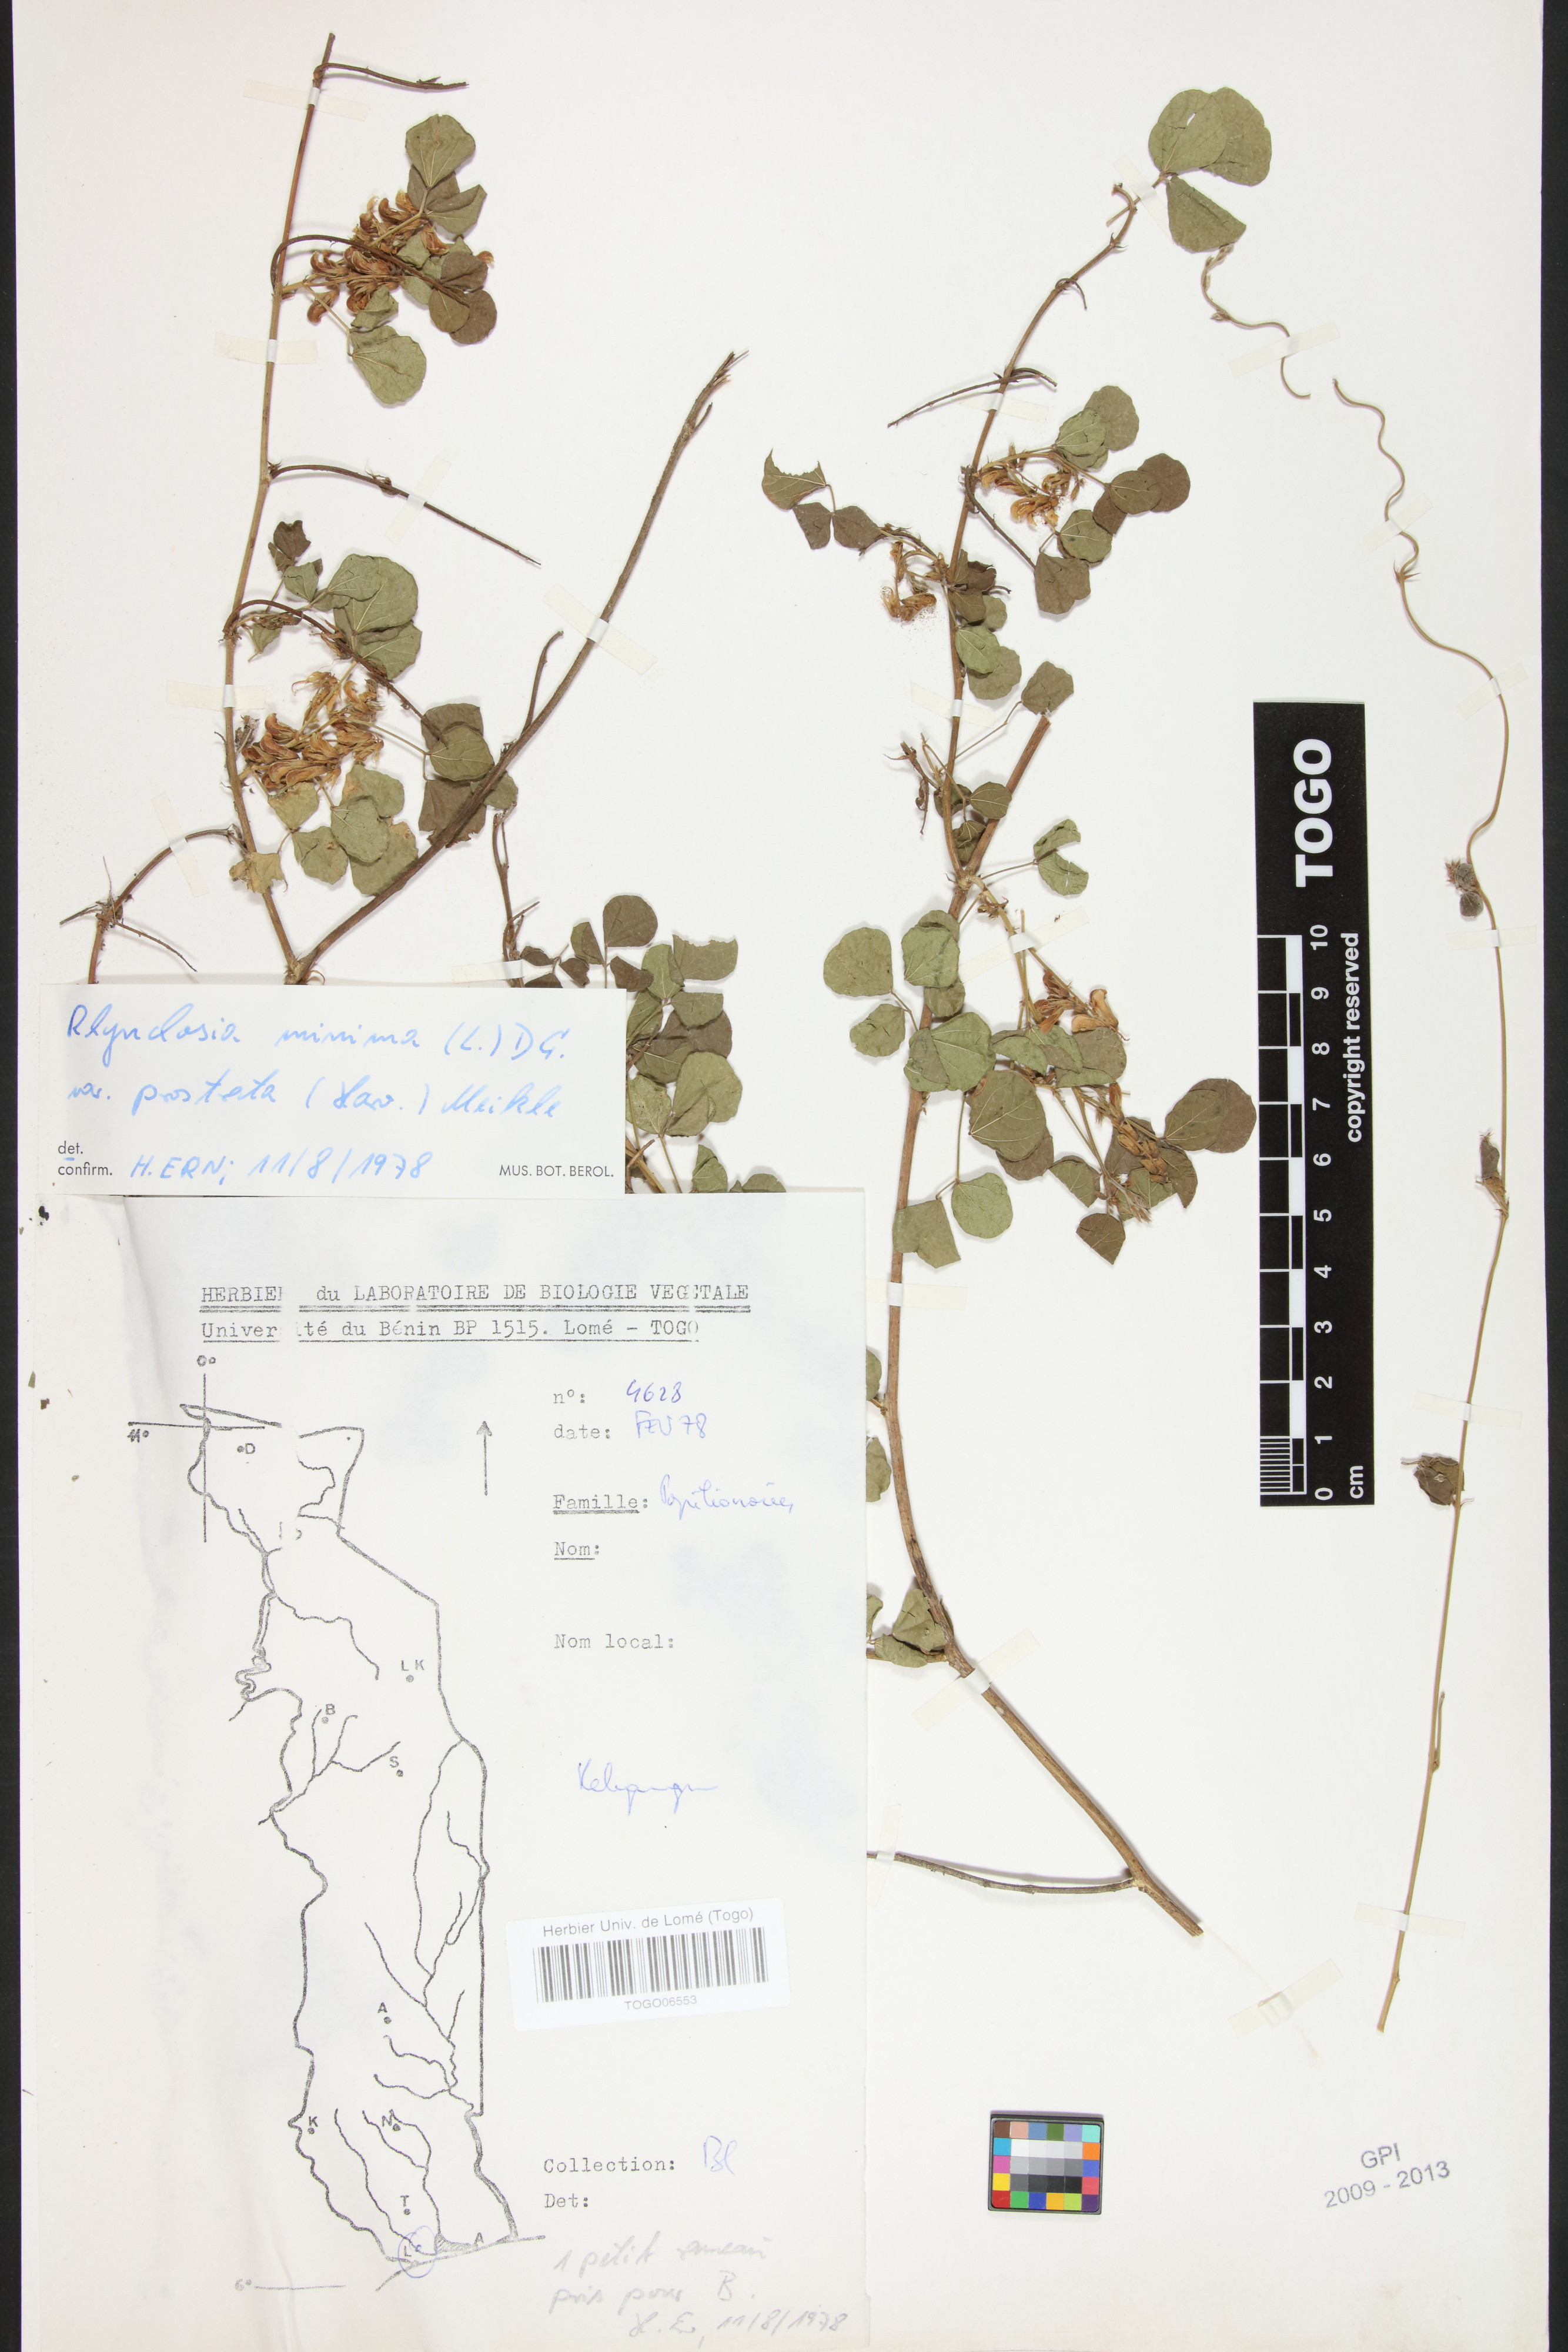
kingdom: Plantae
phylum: Tracheophyta
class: Magnoliopsida
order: Fabales
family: Fabaceae
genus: Rhynchosia
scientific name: Rhynchosia minima
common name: Least snoutbean
